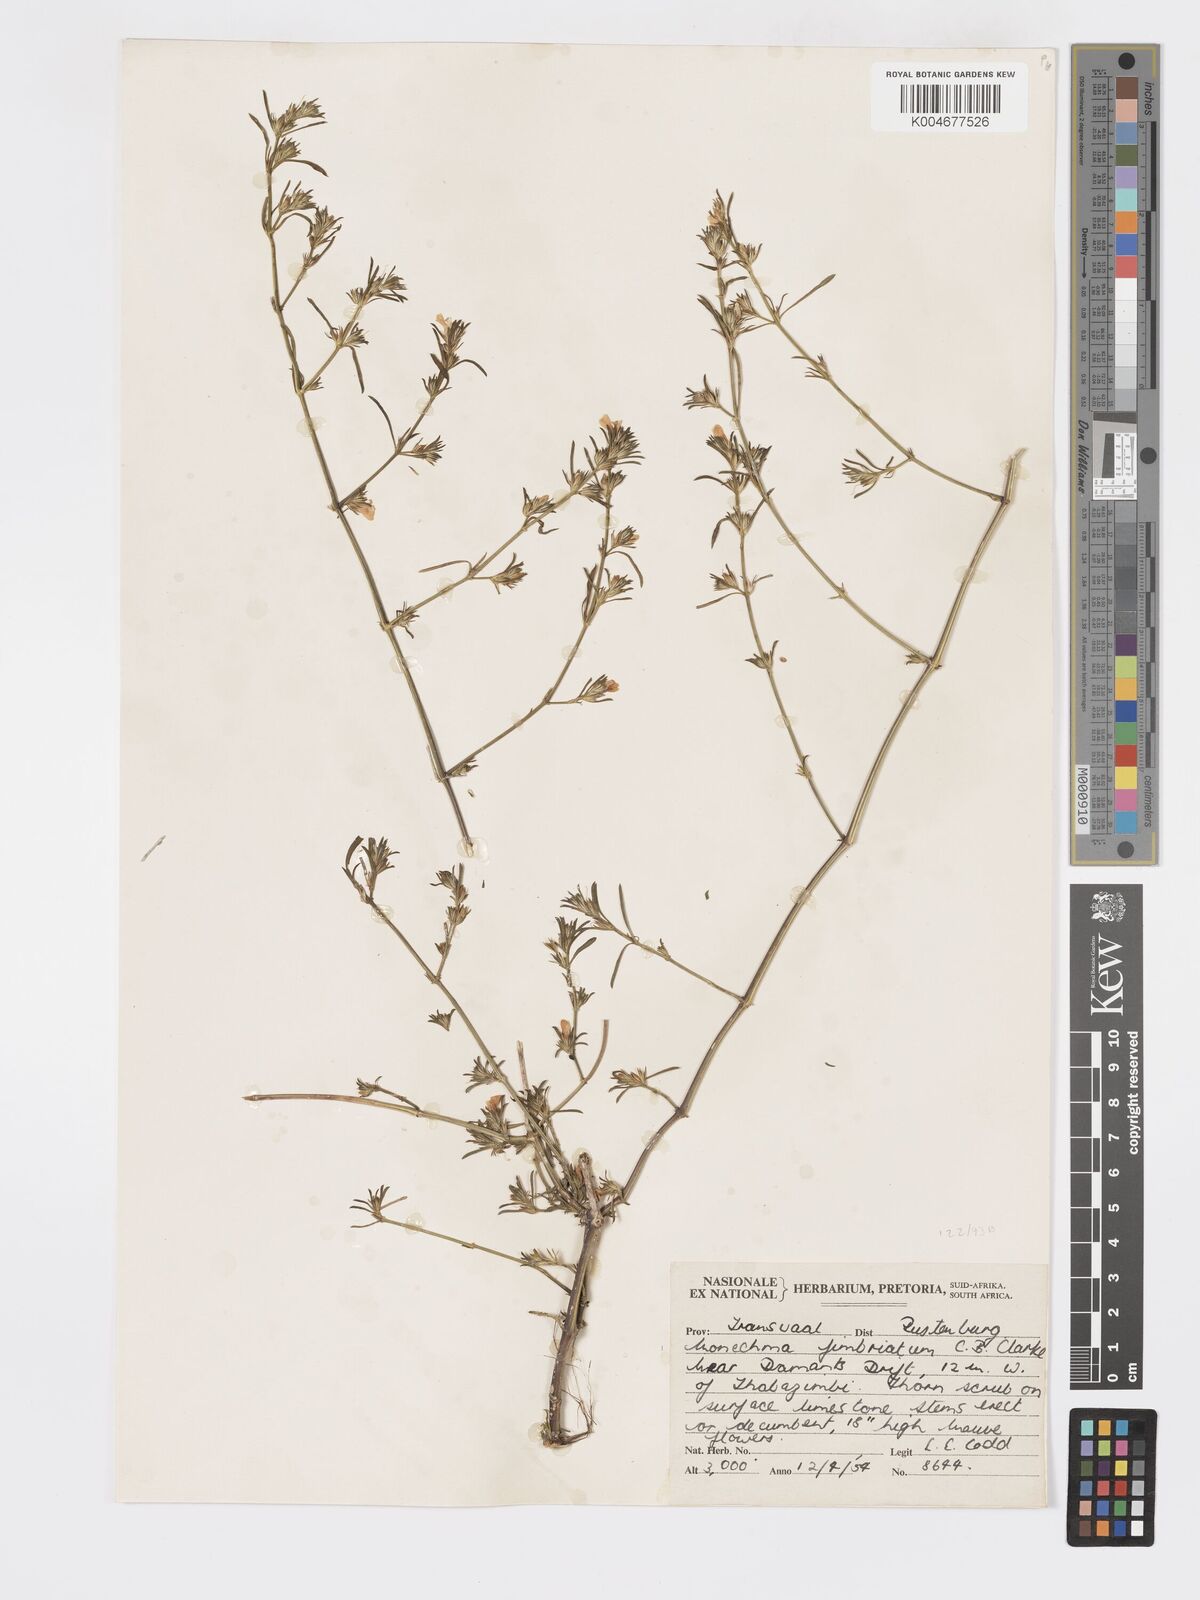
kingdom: Plantae
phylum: Tracheophyta
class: Magnoliopsida
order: Lamiales
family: Acanthaceae
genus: Pogonospermum
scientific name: Pogonospermum
